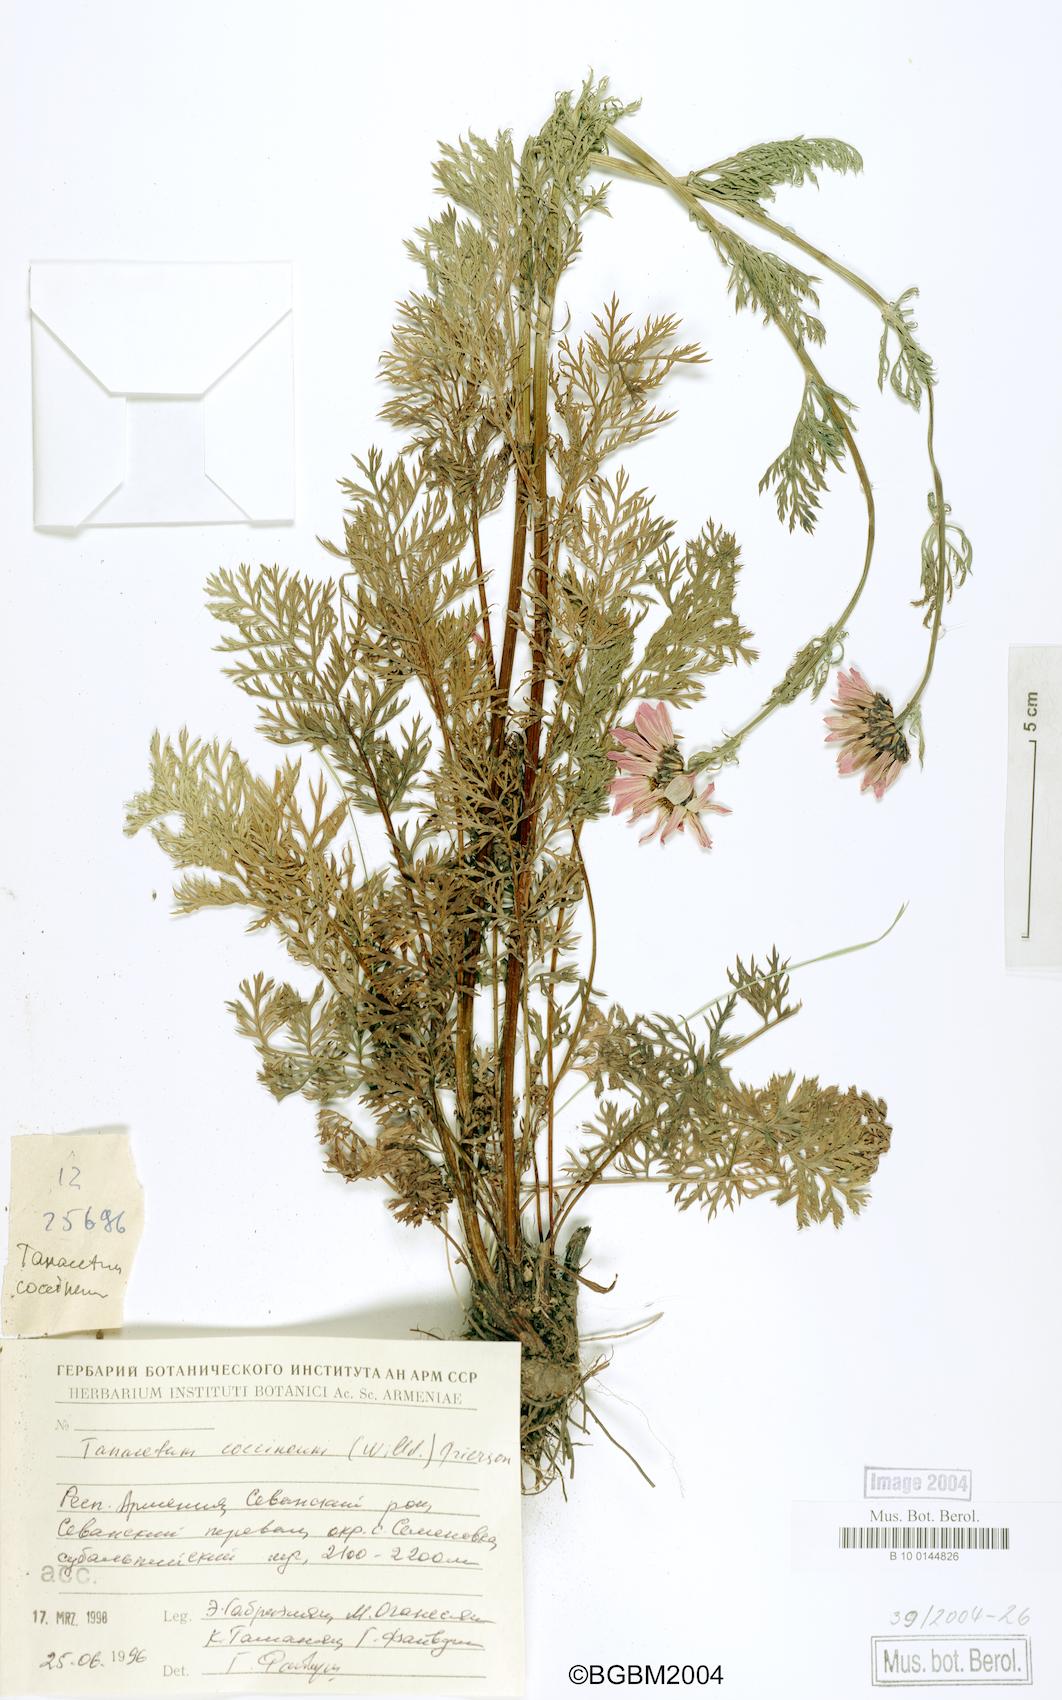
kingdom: Plantae
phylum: Tracheophyta
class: Magnoliopsida
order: Asterales
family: Asteraceae
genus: Tanacetum
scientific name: Tanacetum coccineum
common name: Pyrethum daisy
